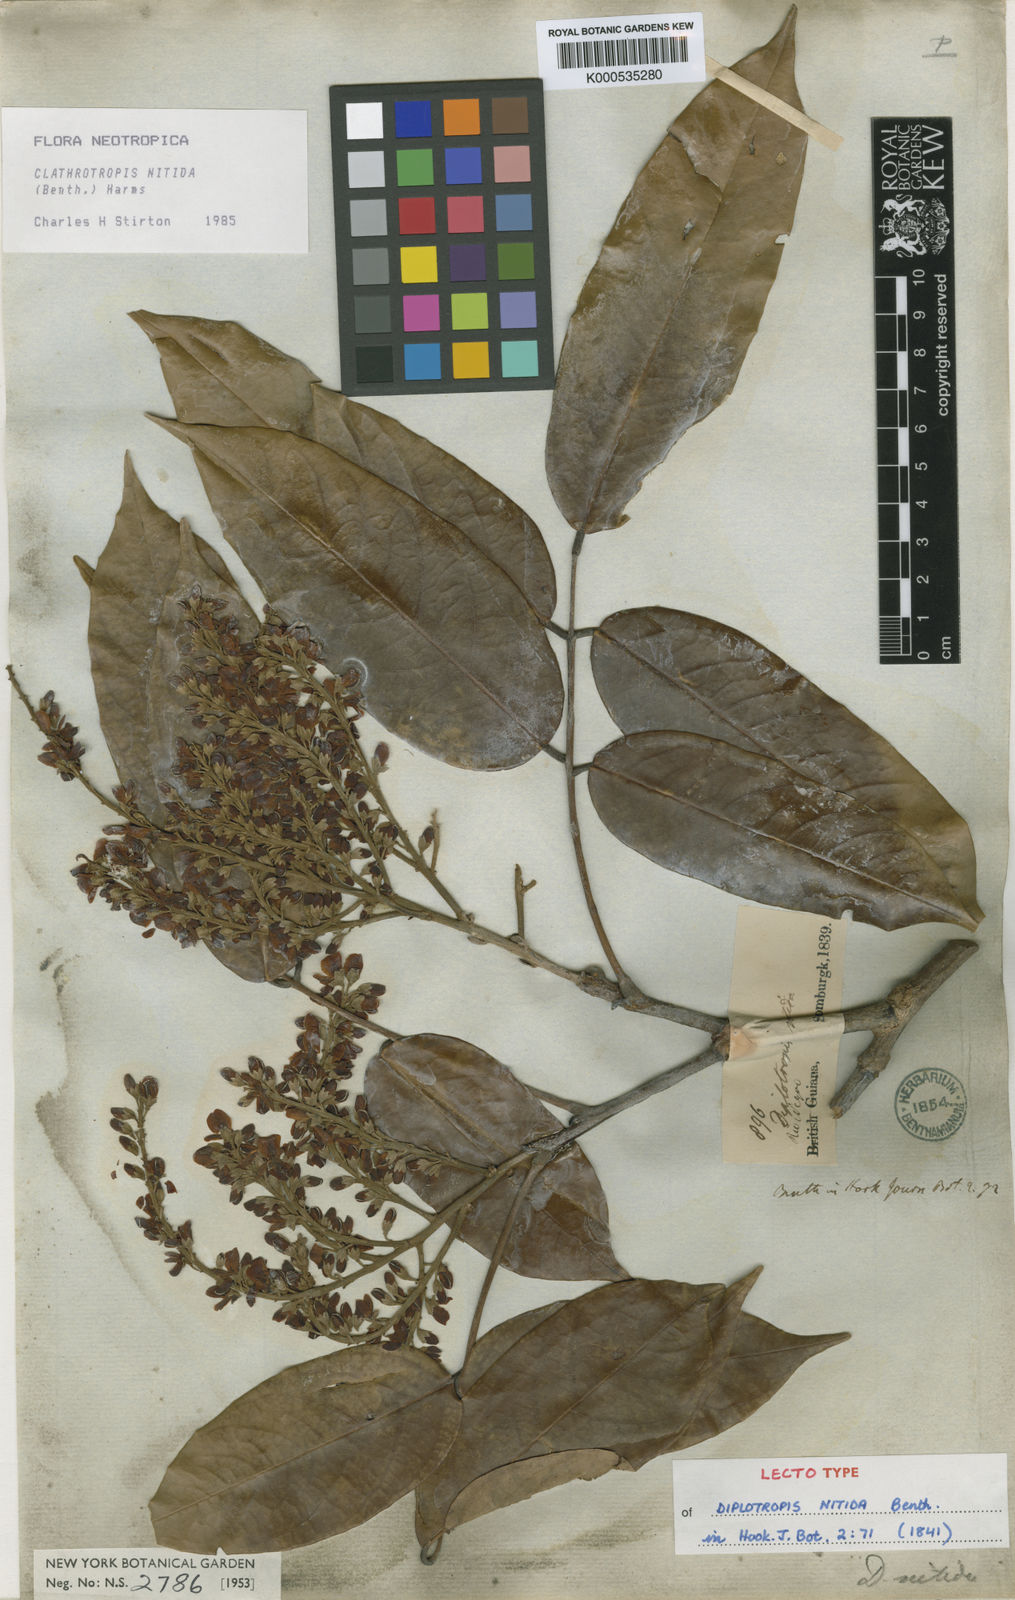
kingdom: Plantae
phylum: Tracheophyta
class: Magnoliopsida
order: Fabales
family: Fabaceae
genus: Clathrotropis
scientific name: Clathrotropis nitida
